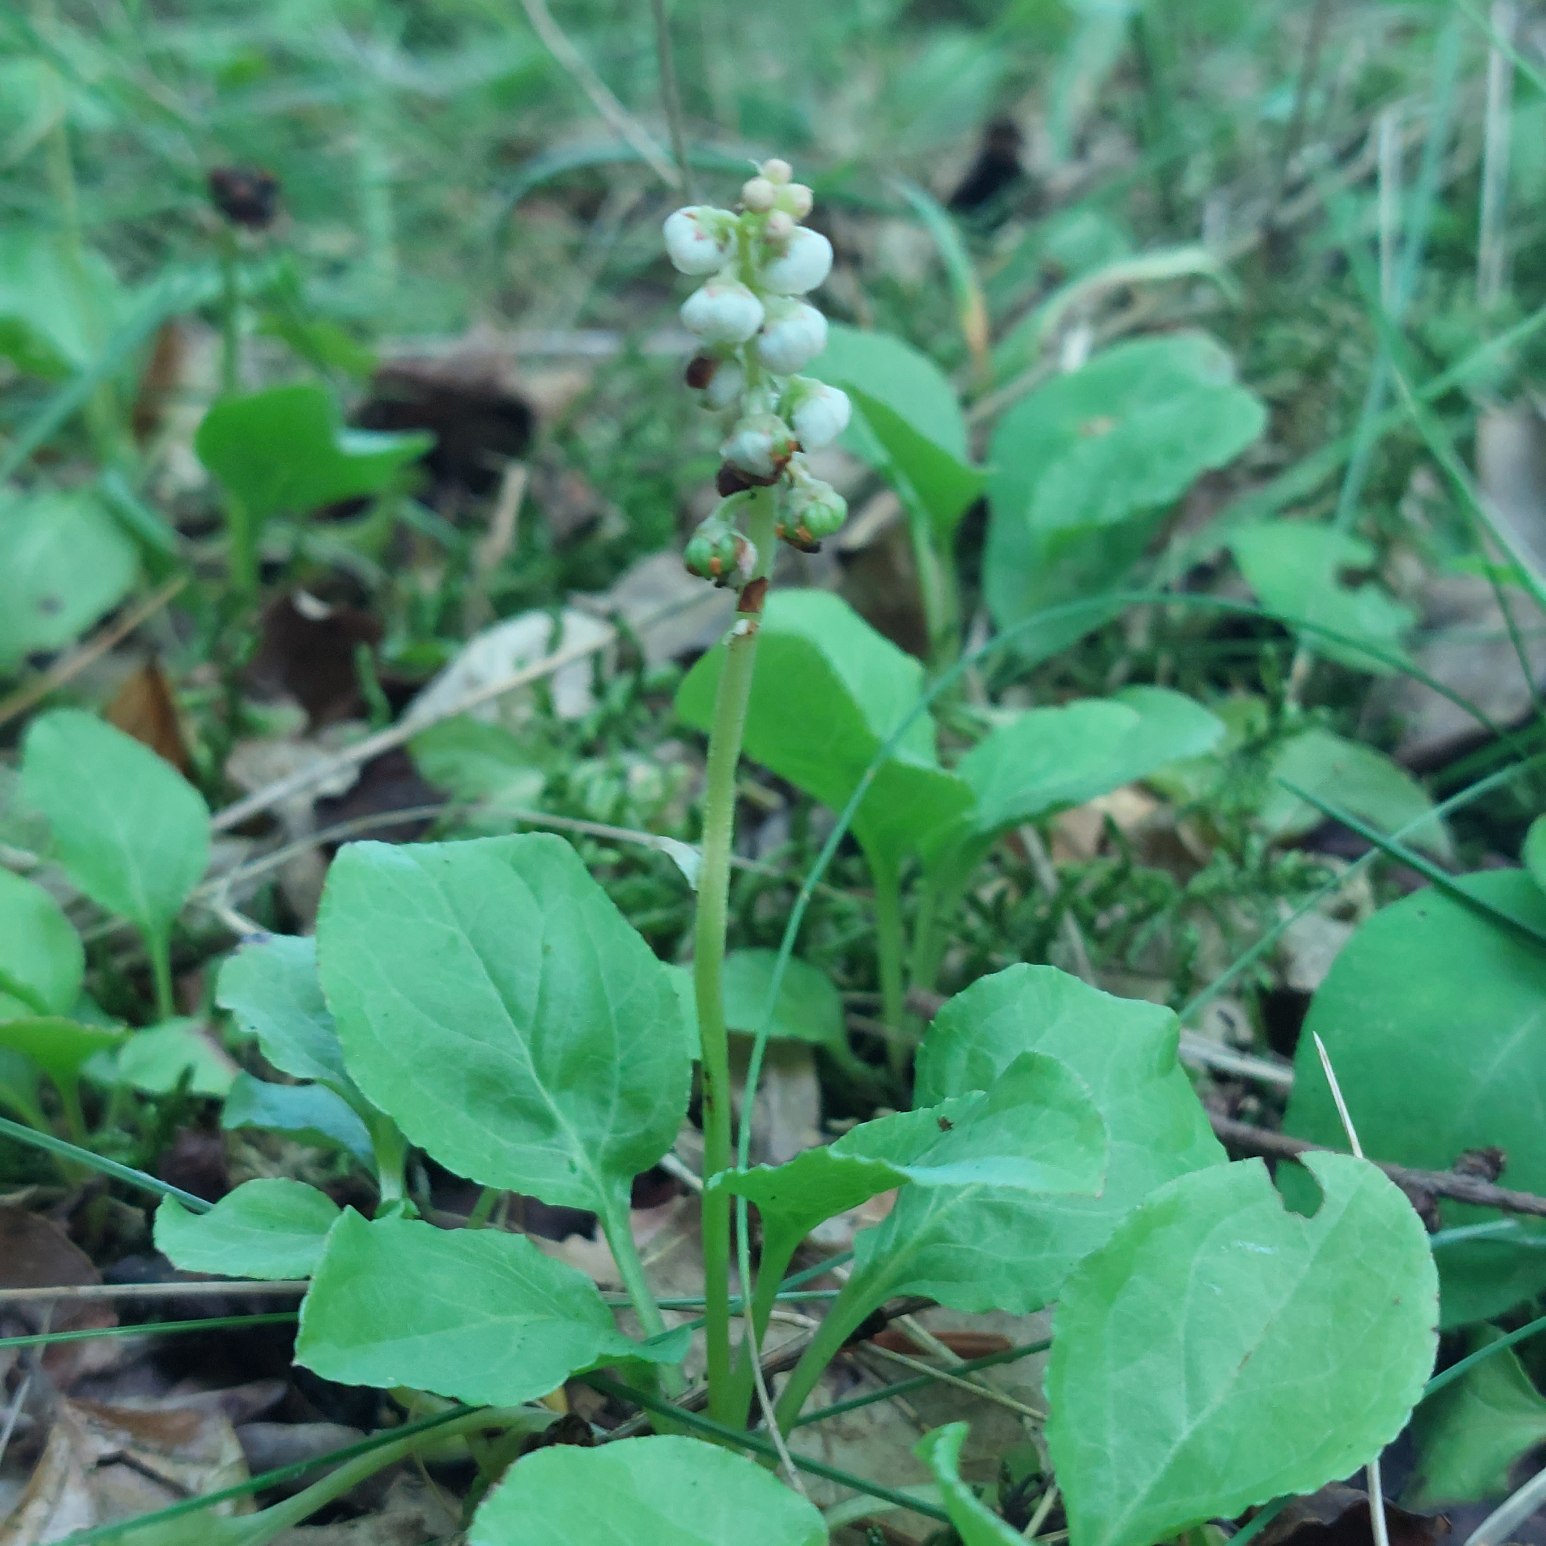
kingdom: Plantae
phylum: Tracheophyta
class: Magnoliopsida
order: Ericales
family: Ericaceae
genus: Pyrola
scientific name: Pyrola minor
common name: Liden vintergrøn
